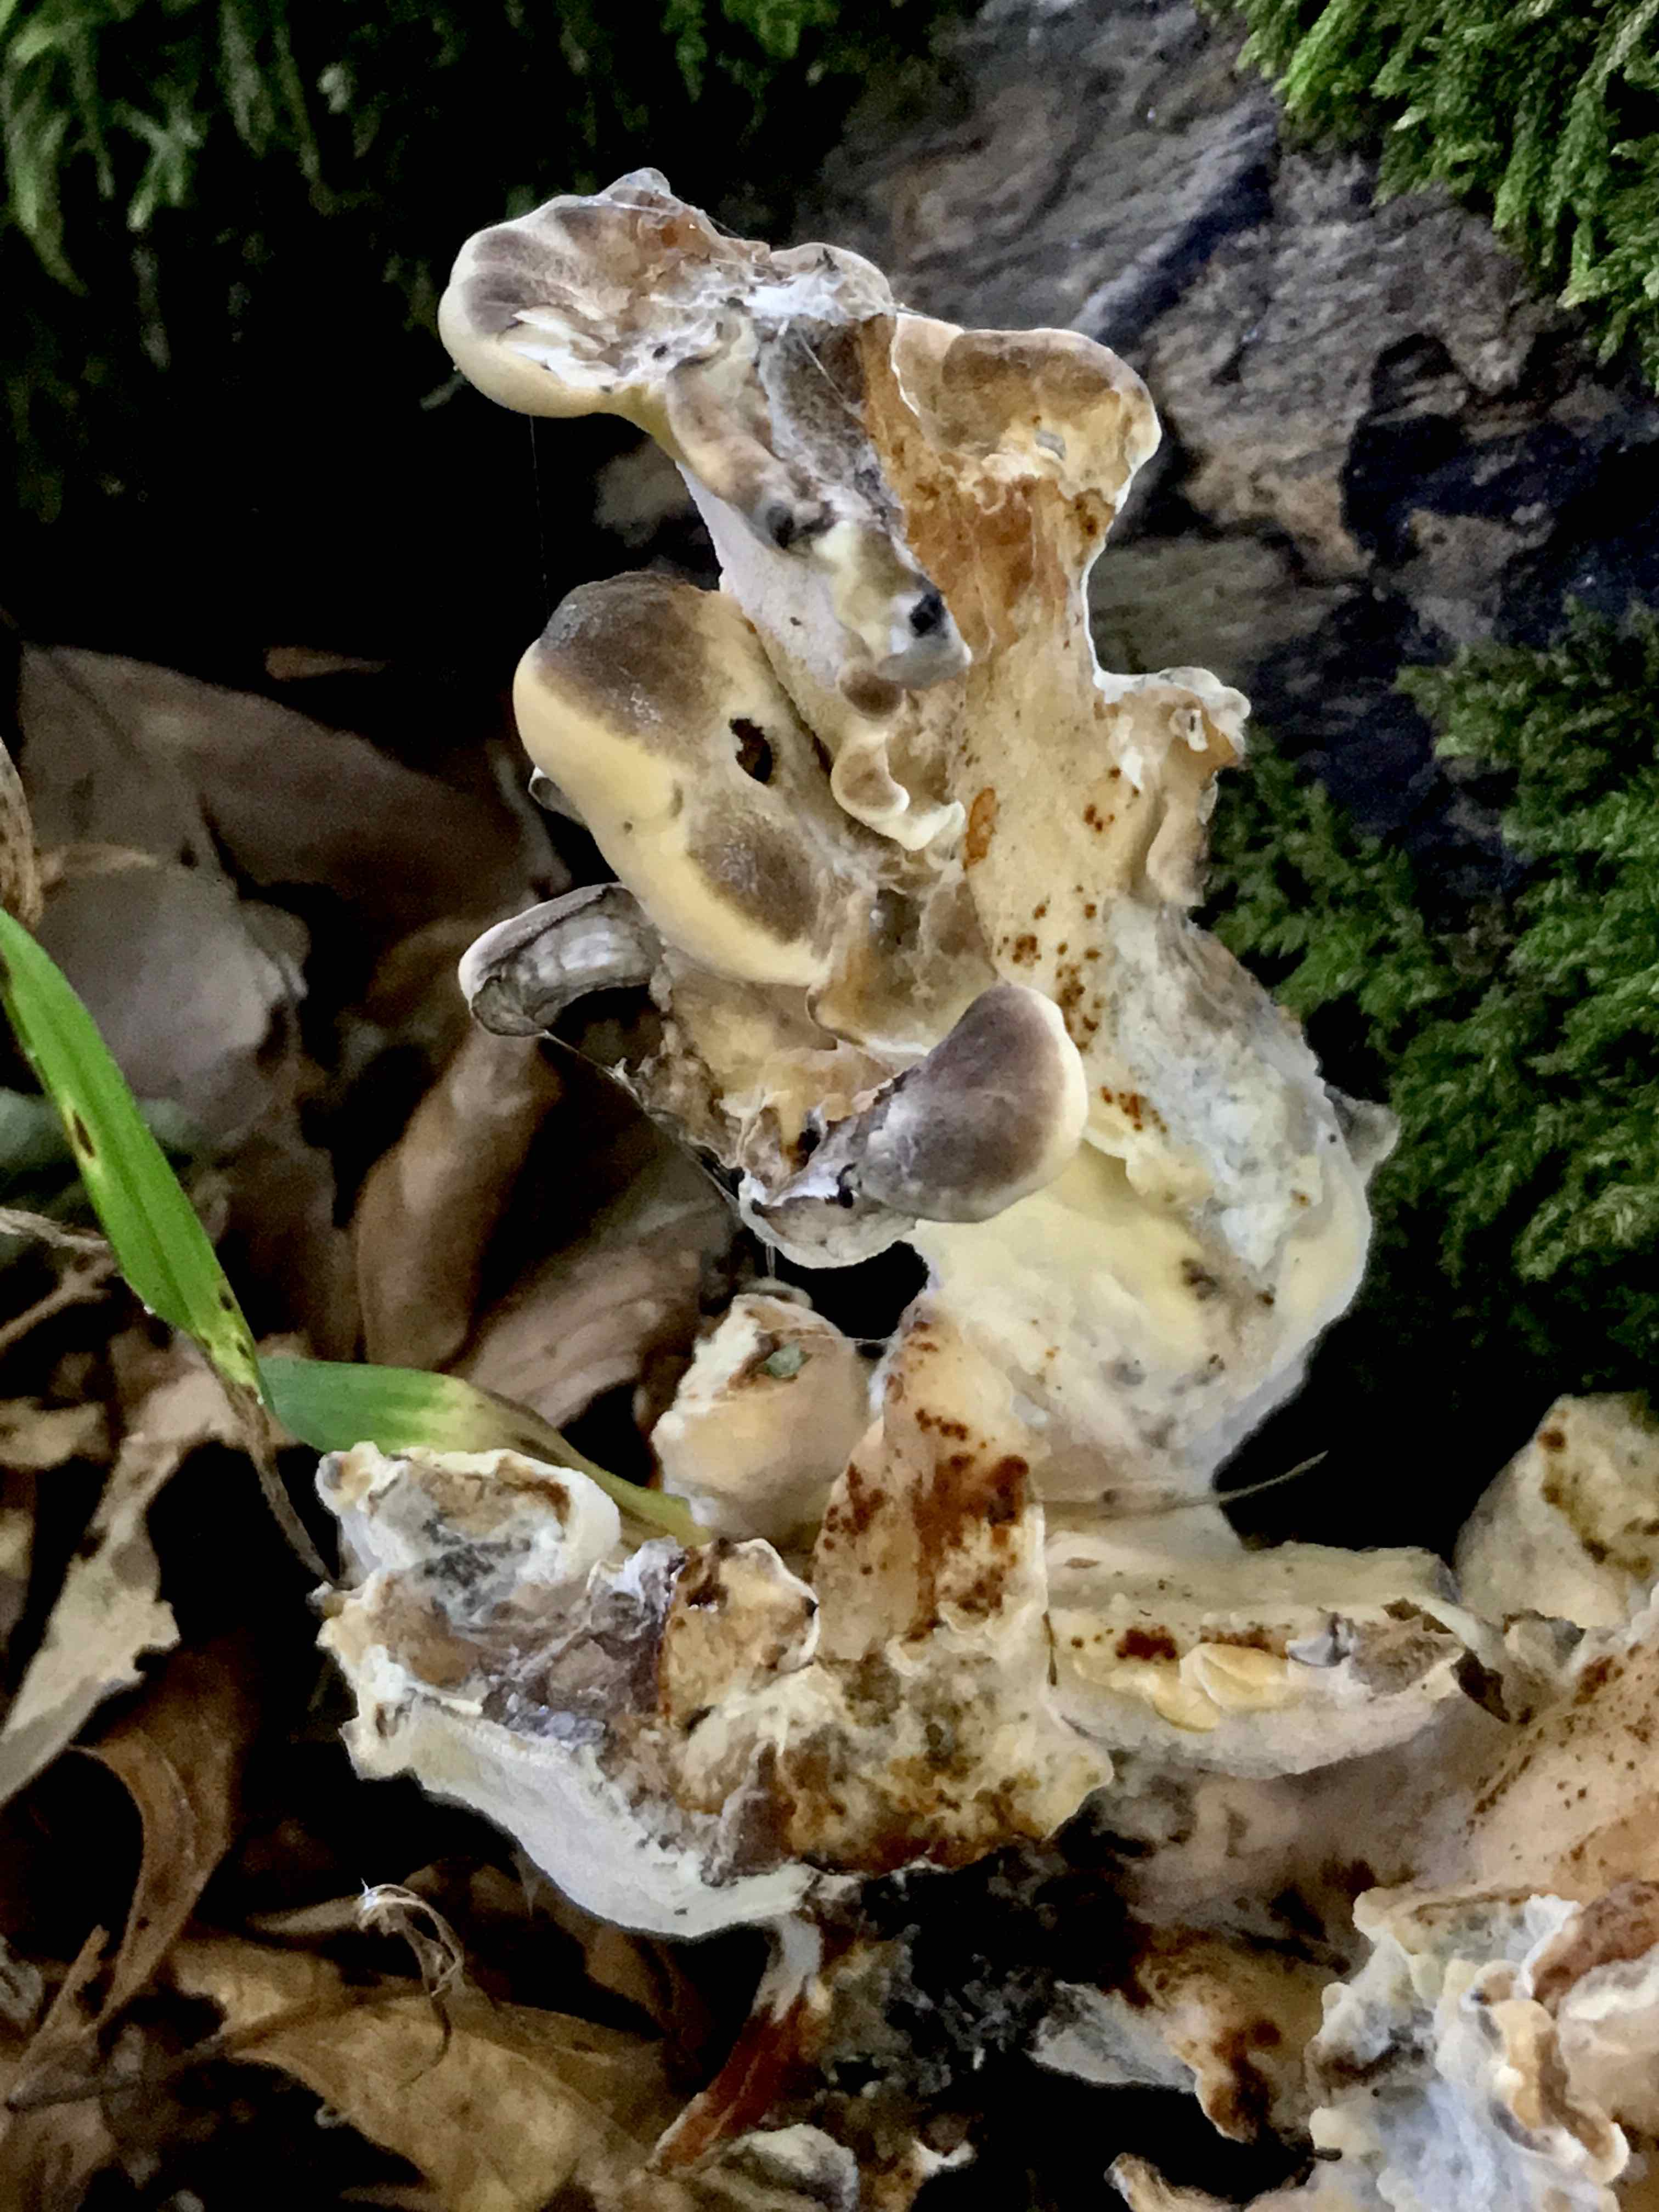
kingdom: Fungi
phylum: Basidiomycota
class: Agaricomycetes
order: Polyporales
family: Meripilaceae
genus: Meripilus
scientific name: Meripilus giganteus
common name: kæmpeporesvamp
